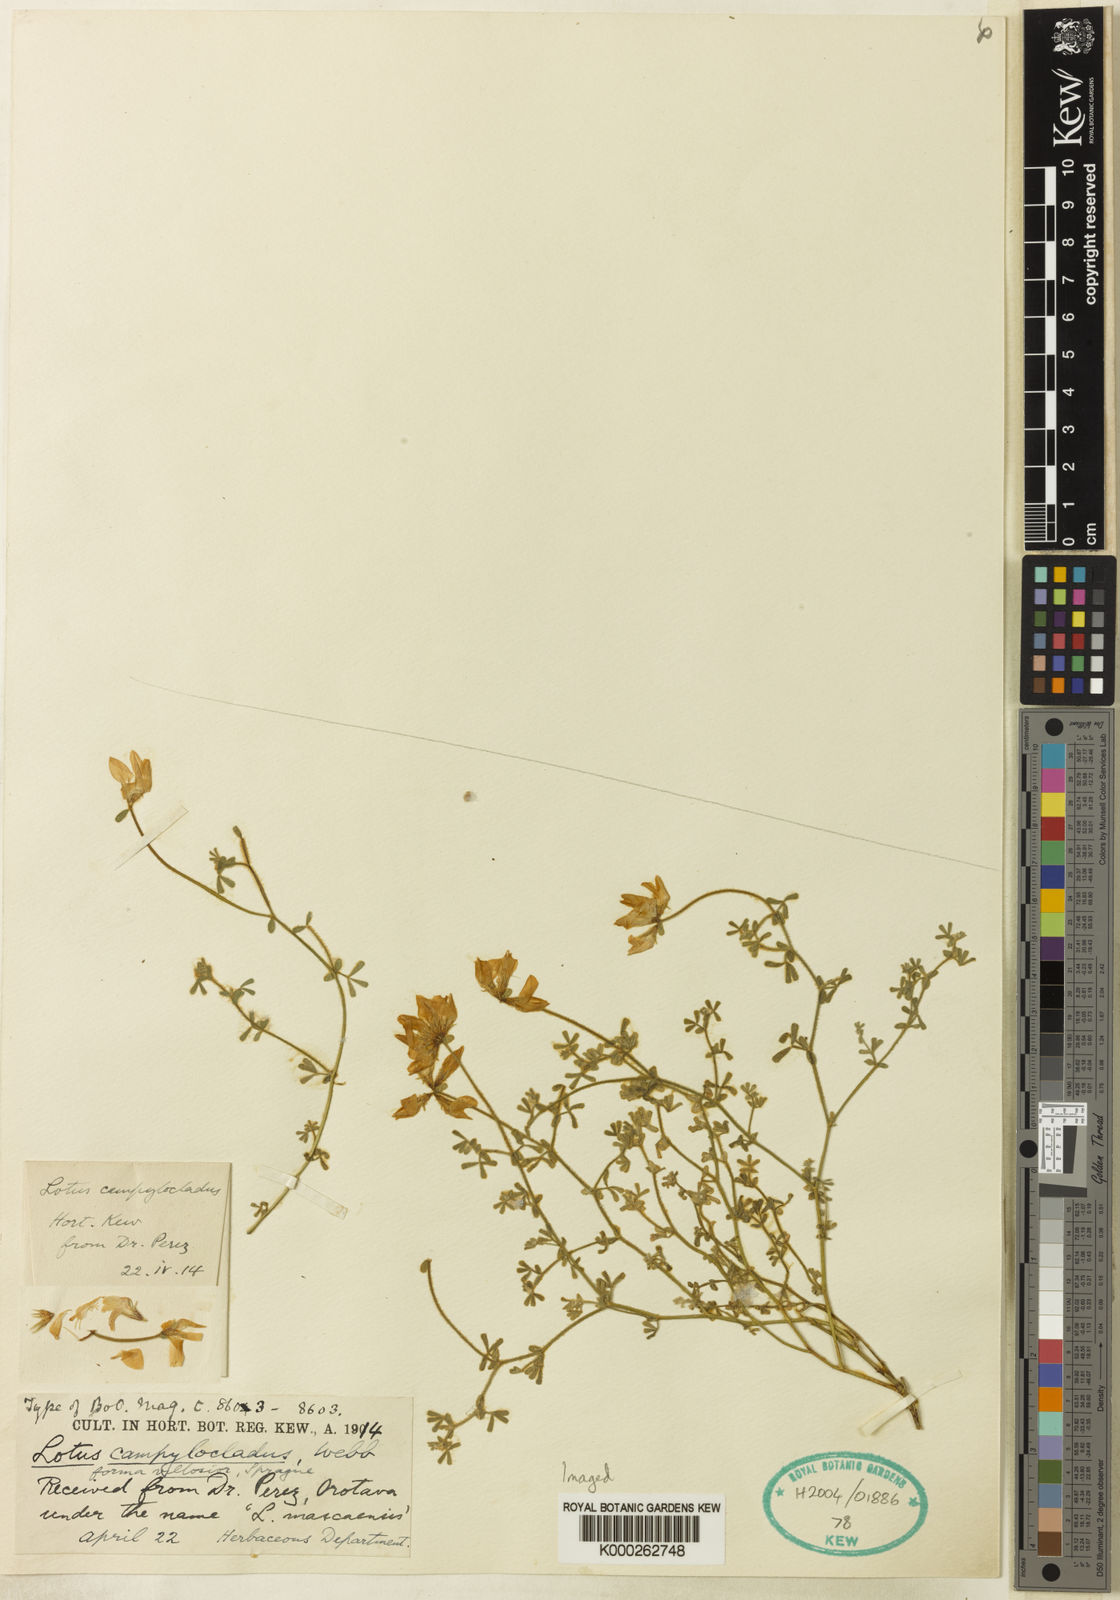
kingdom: Plantae
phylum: Tracheophyta
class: Magnoliopsida
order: Fabales
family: Fabaceae
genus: Lotus
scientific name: Lotus campylocladus
